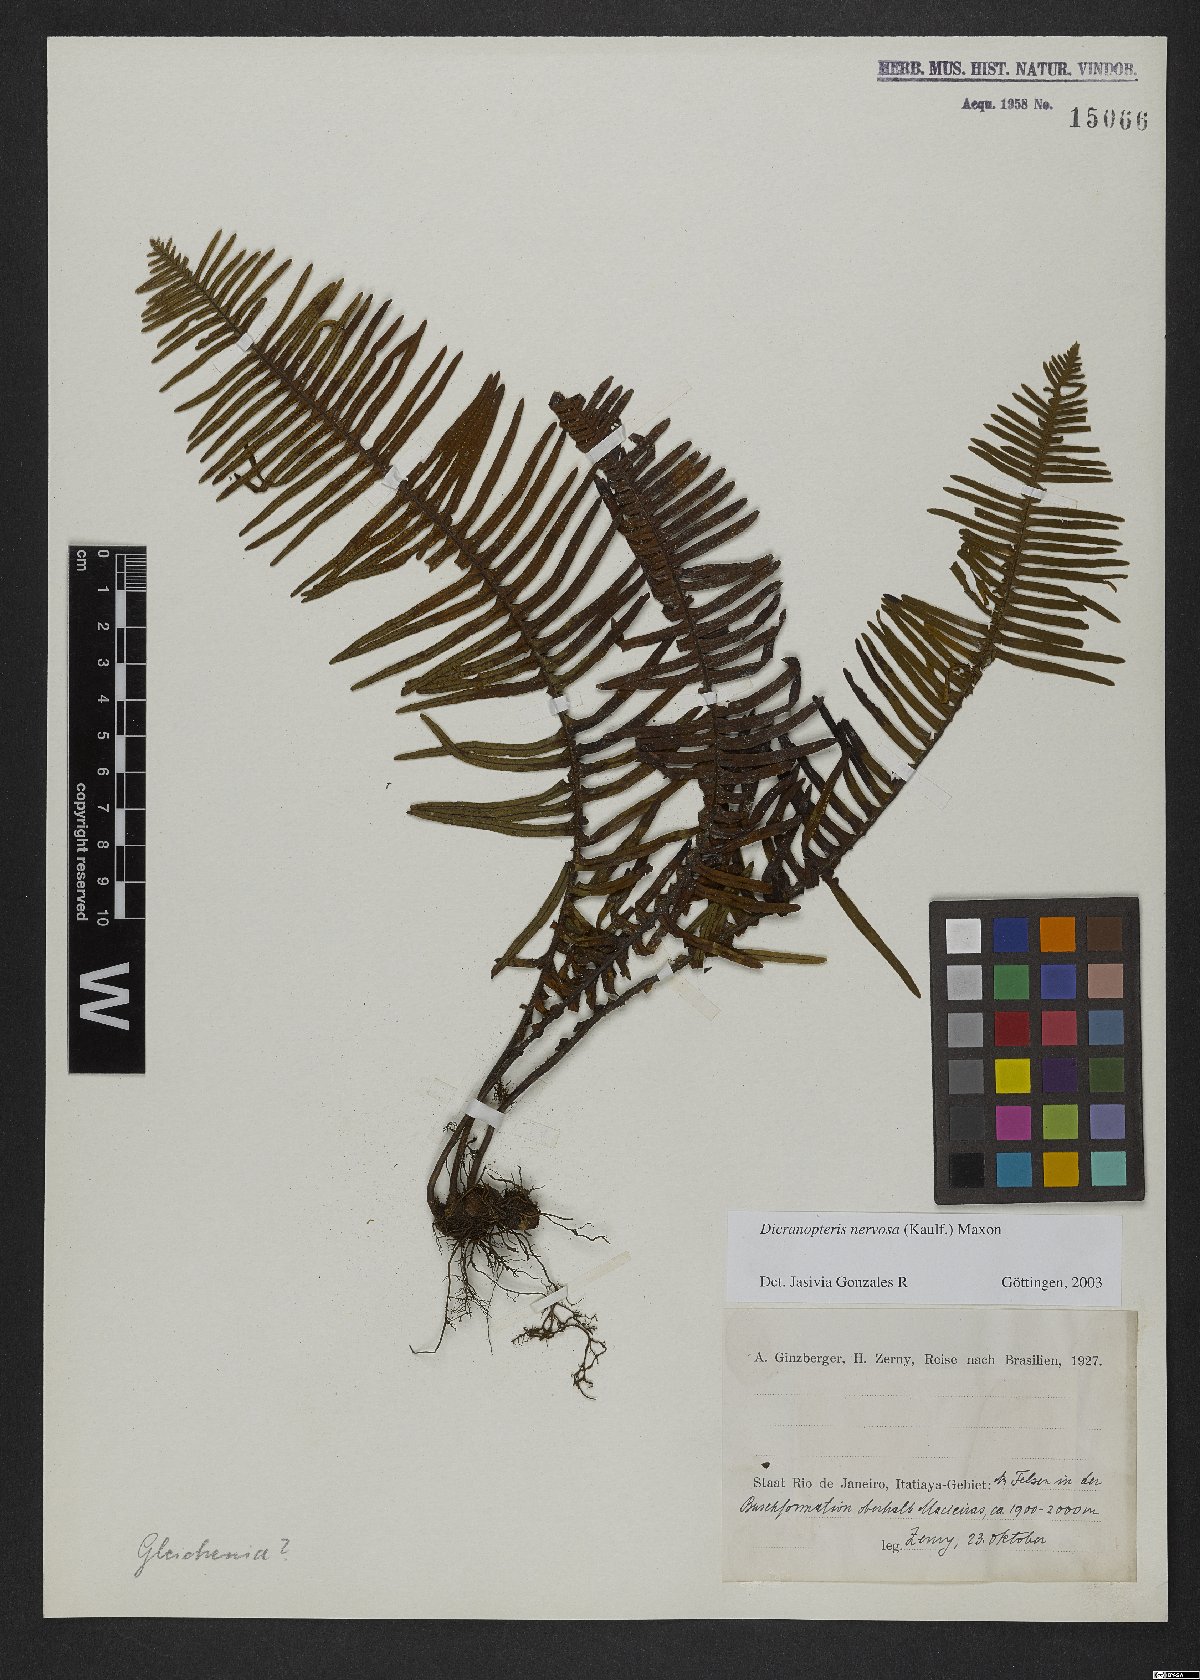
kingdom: Plantae
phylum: Tracheophyta
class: Polypodiopsida
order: Gleicheniales
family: Gleicheniaceae
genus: Dicranopteris
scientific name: Dicranopteris nervosa
